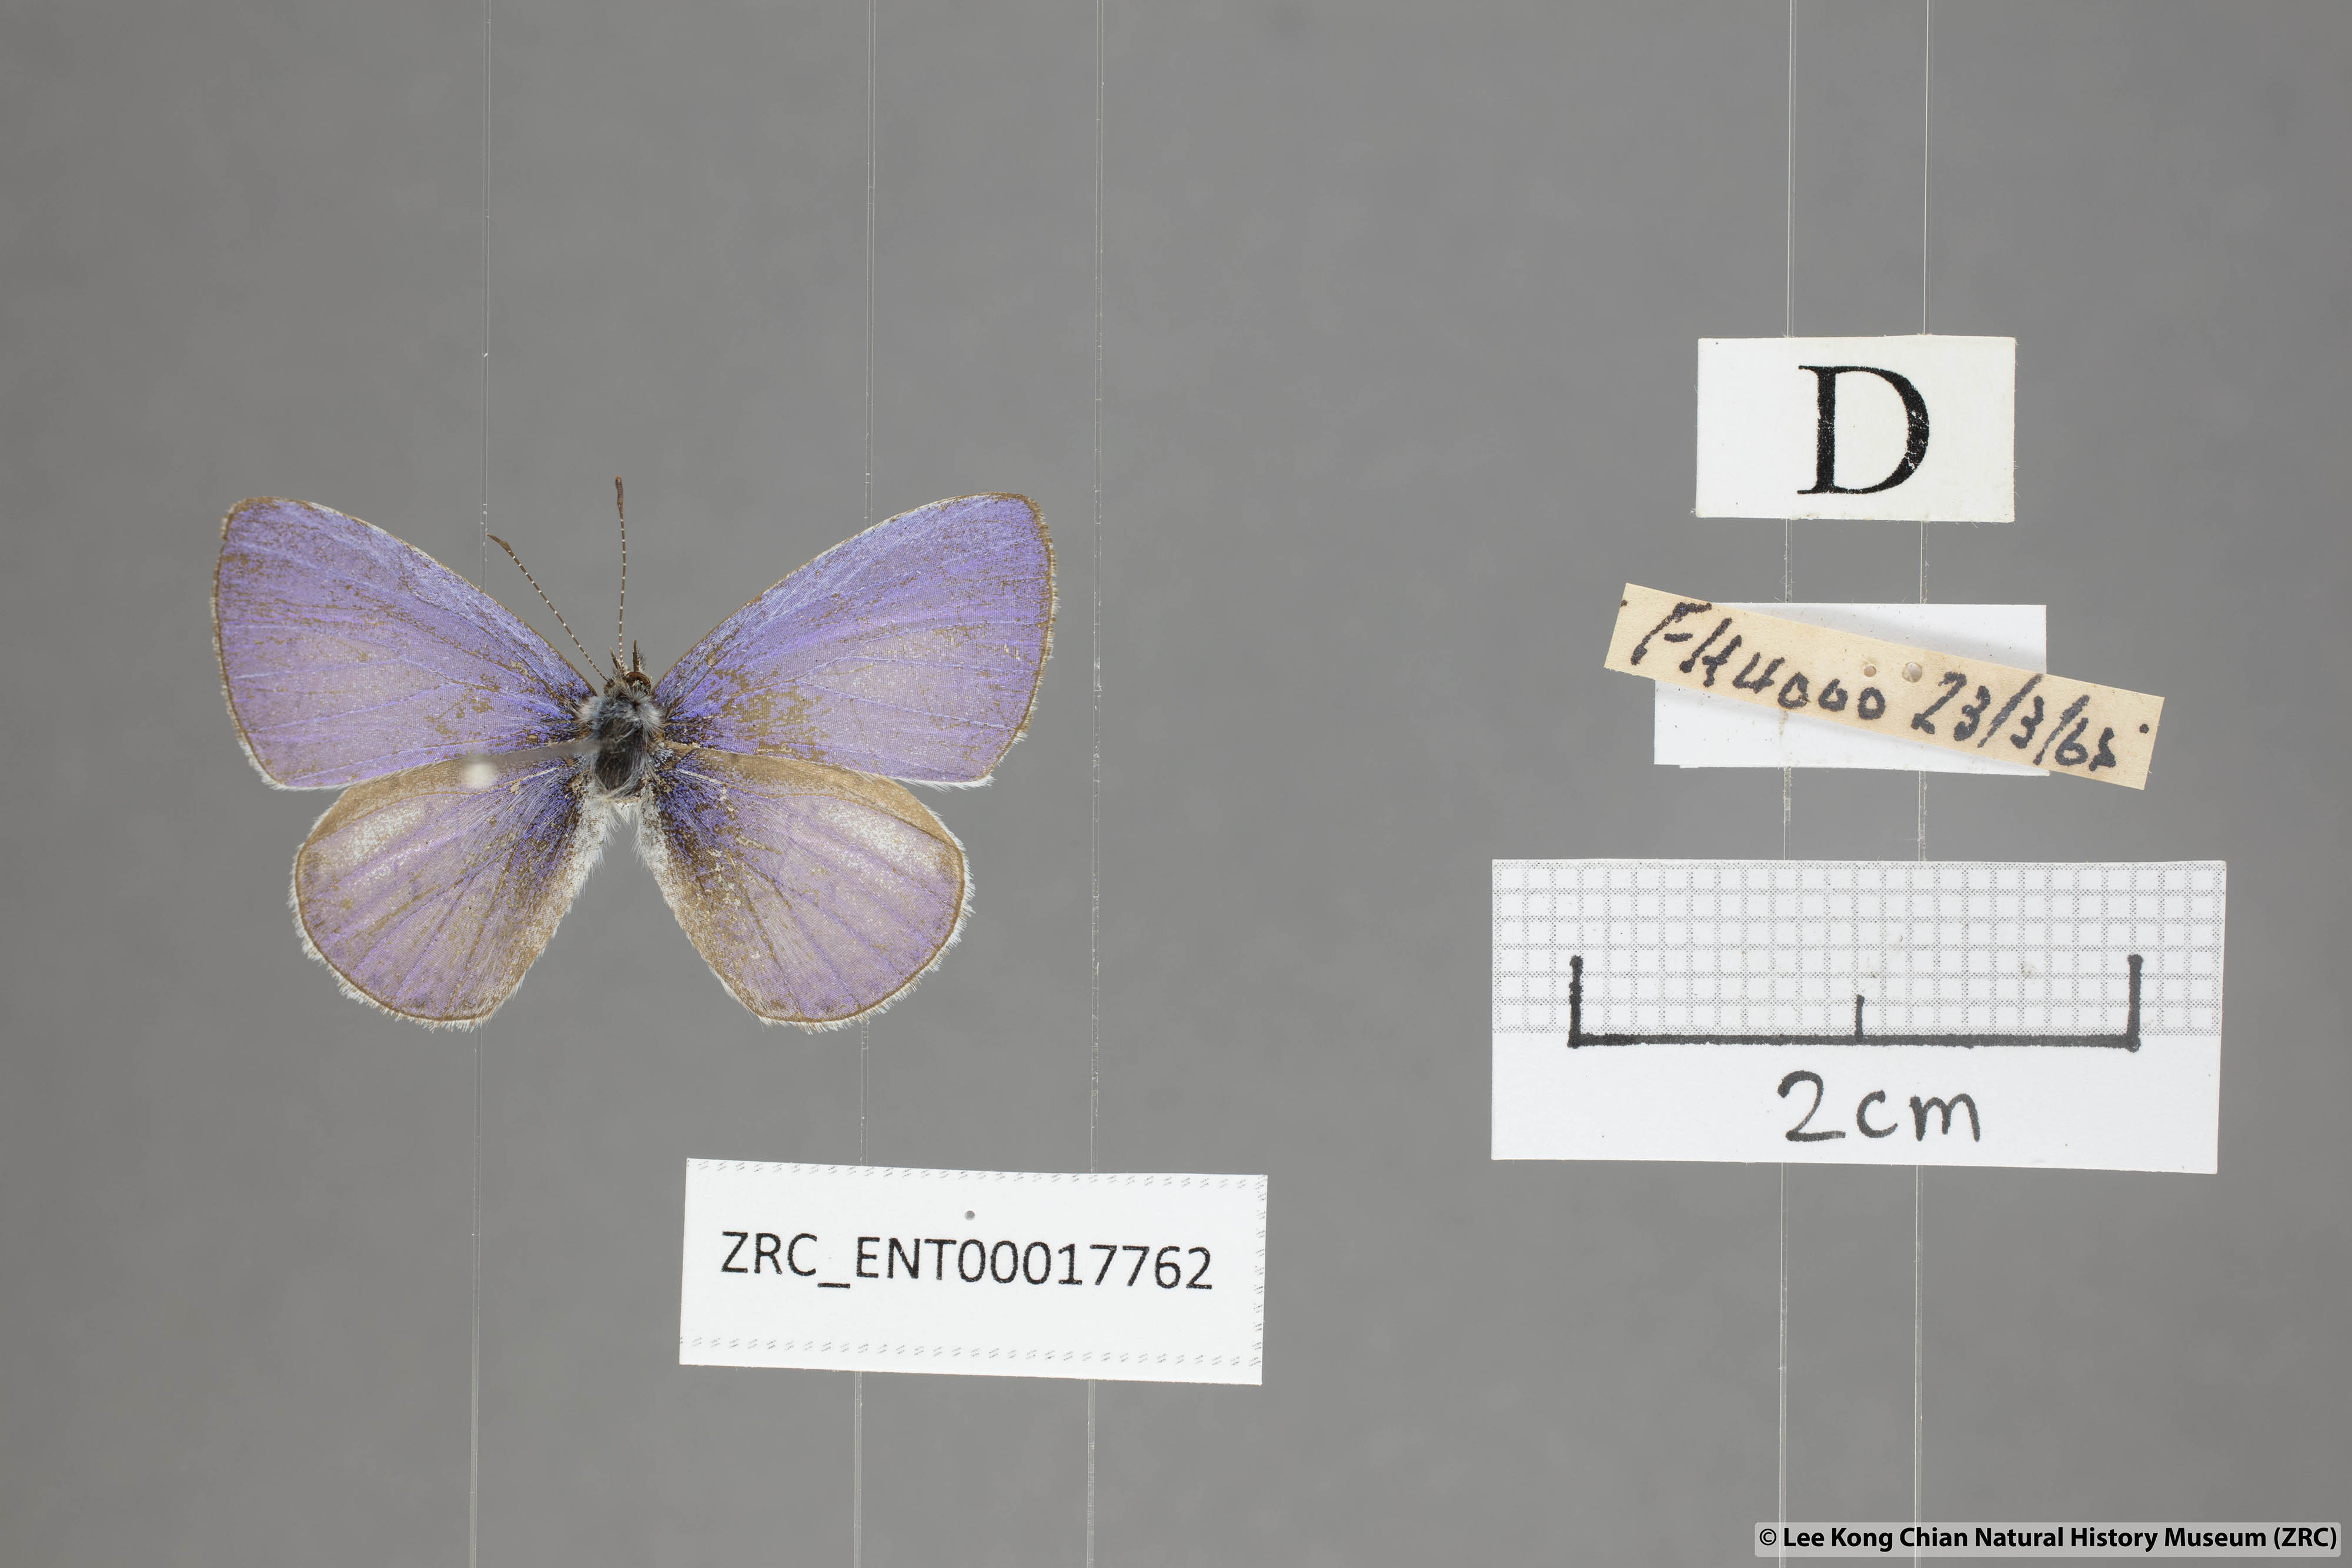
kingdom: Animalia
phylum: Arthropoda
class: Insecta
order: Lepidoptera
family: Lycaenidae
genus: Udara
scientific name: Udara dilectus
